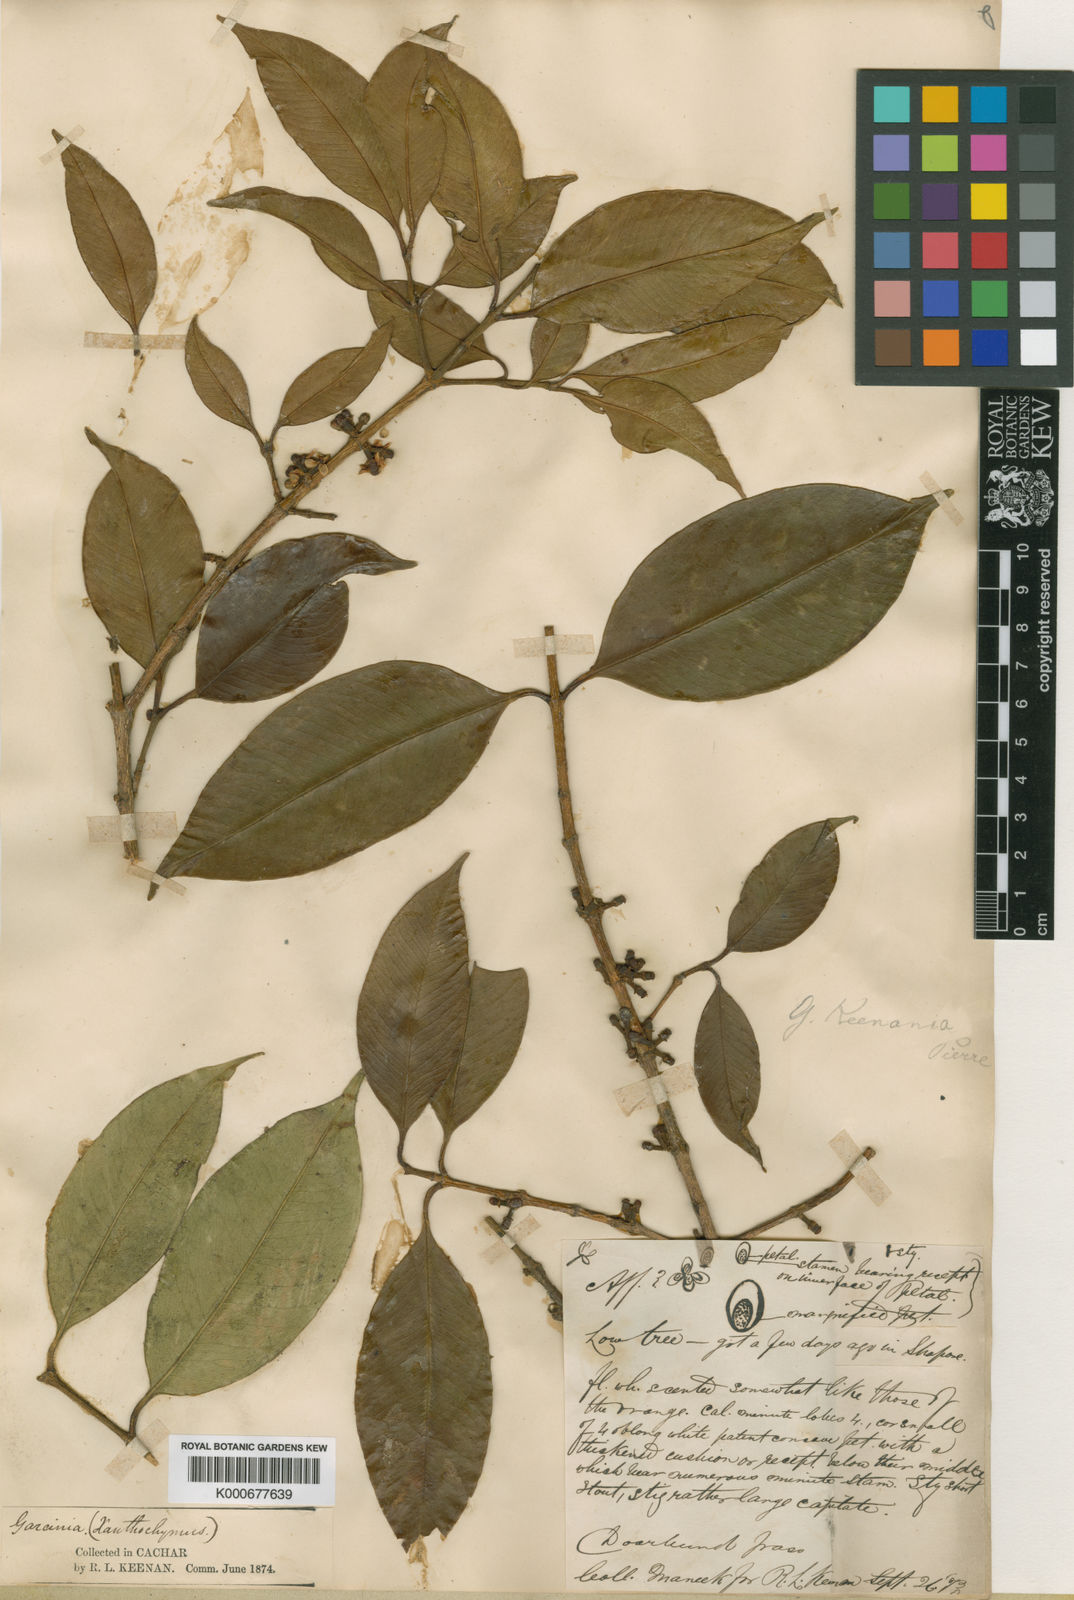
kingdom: Plantae
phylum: Tracheophyta
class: Magnoliopsida
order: Malpighiales
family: Clusiaceae
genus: Garcinia
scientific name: Garcinia keenania
